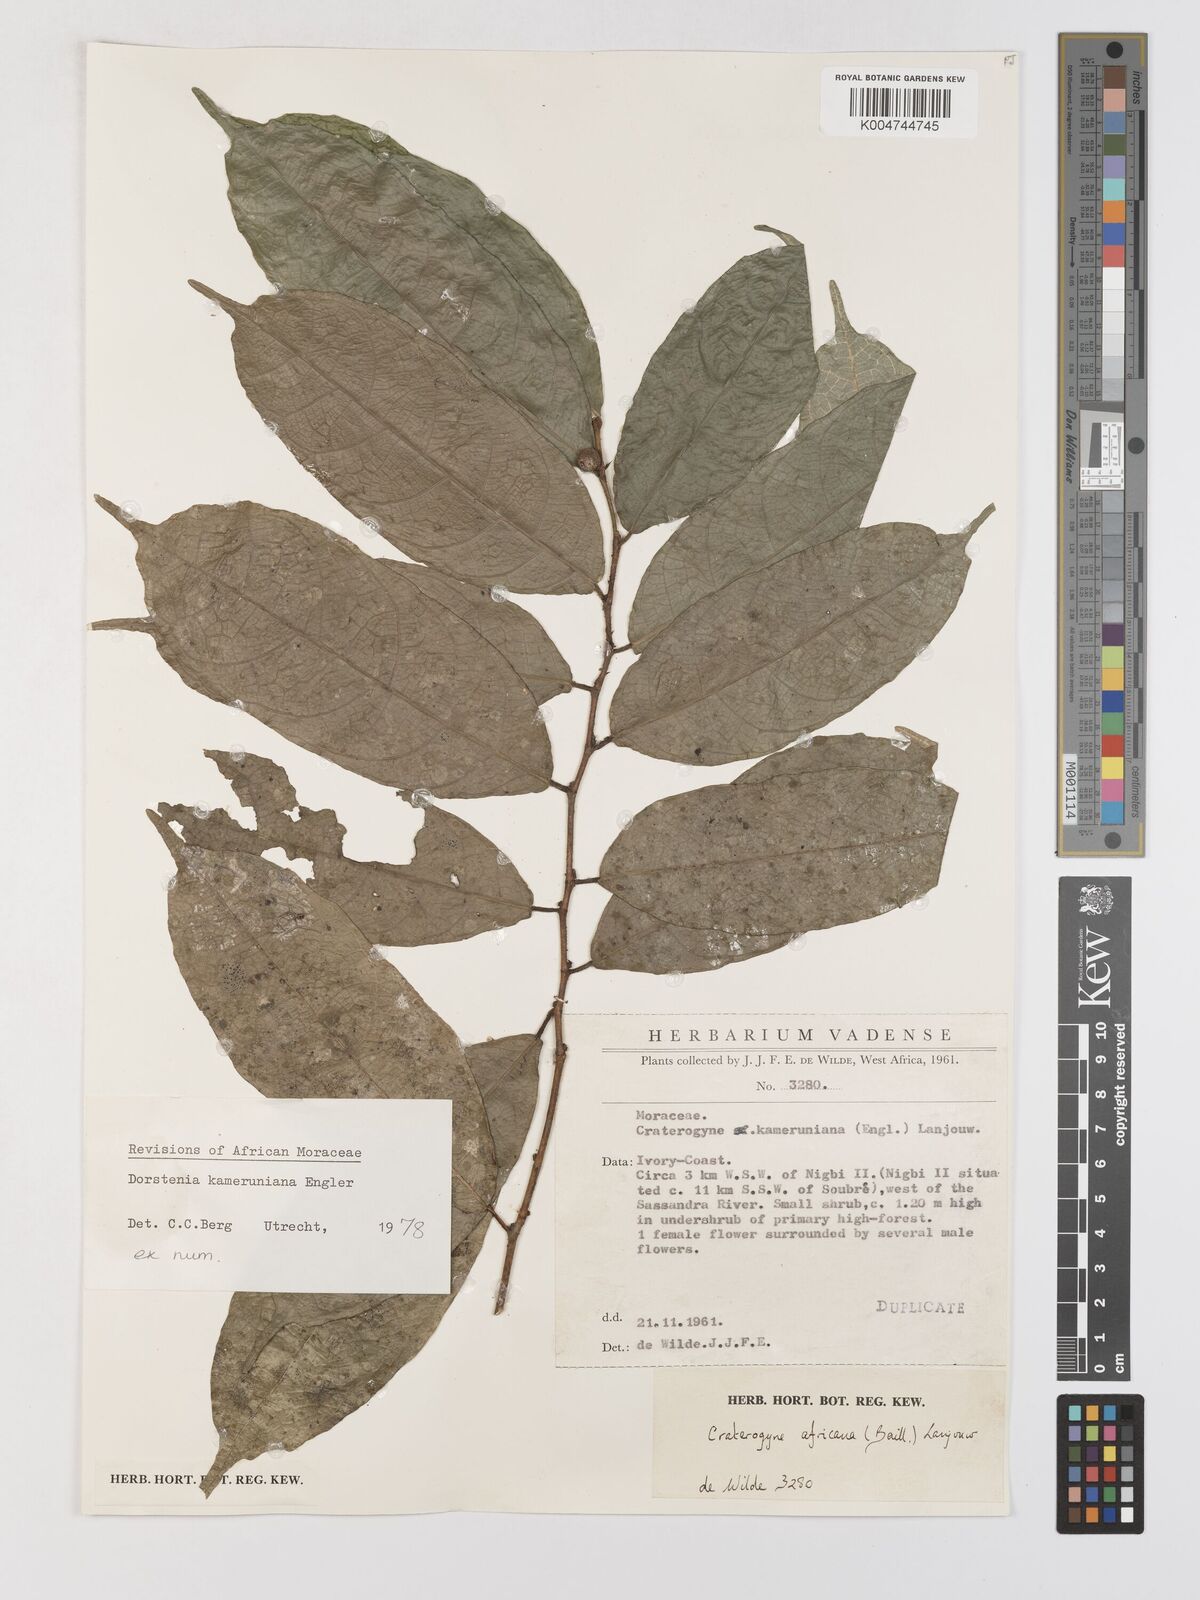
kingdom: Plantae
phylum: Tracheophyta
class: Magnoliopsida
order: Rosales
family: Moraceae
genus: Dorstenia
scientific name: Dorstenia kameruniana
